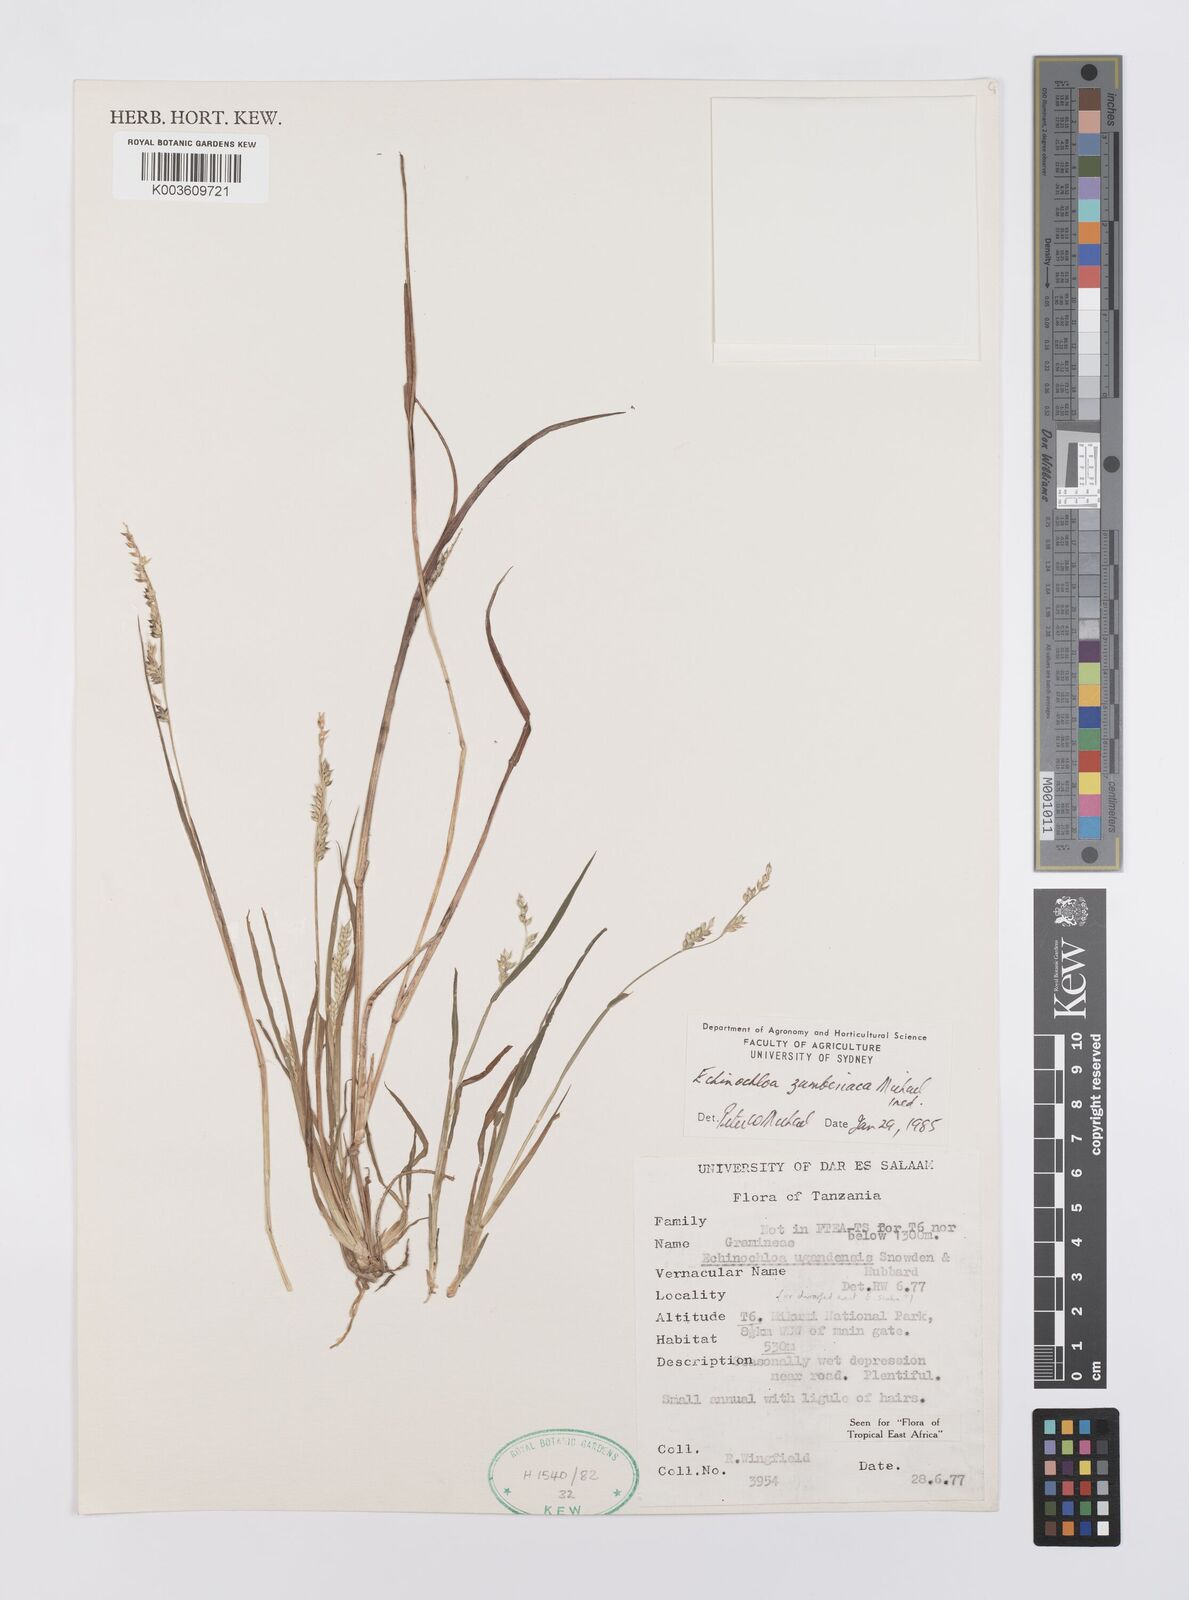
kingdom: Plantae
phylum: Tracheophyta
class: Liliopsida
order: Poales
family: Poaceae
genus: Echinochloa
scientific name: Echinochloa ugandensis
